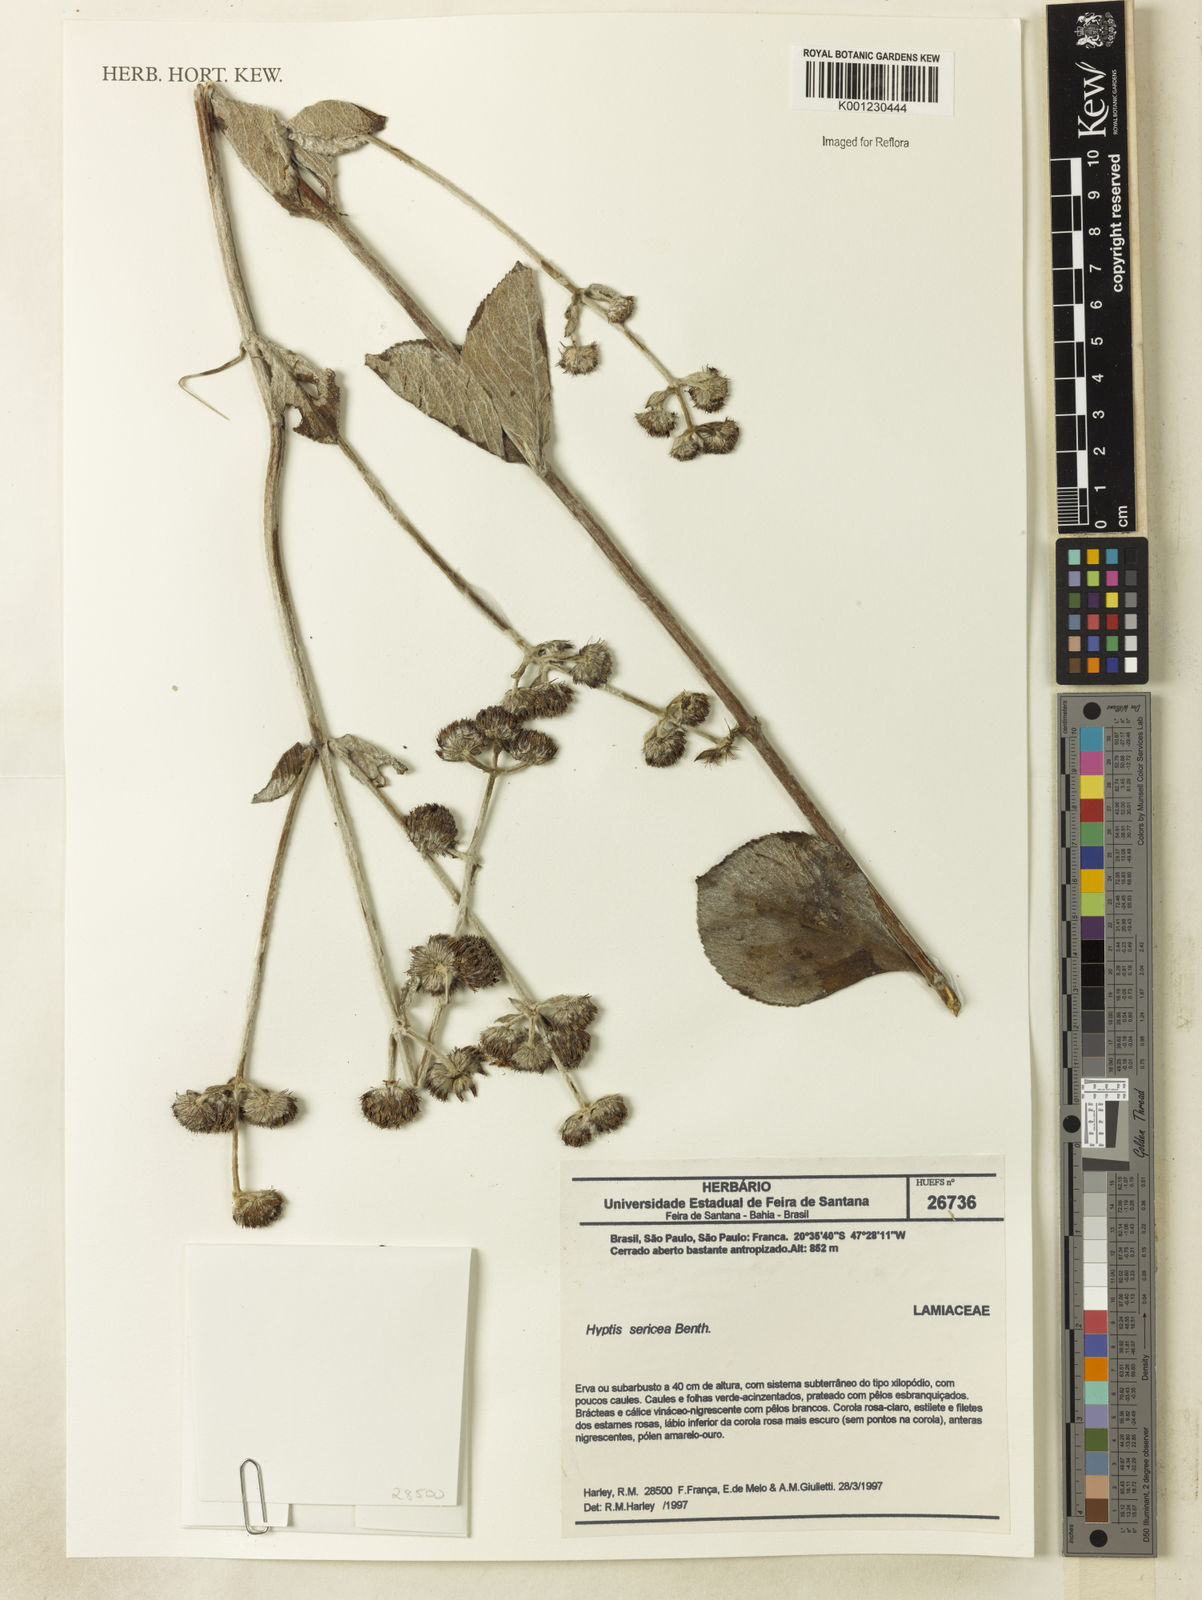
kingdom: Plantae
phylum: Tracheophyta
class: Magnoliopsida
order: Lamiales
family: Lamiaceae
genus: Hyptis
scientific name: Hyptis sericea
